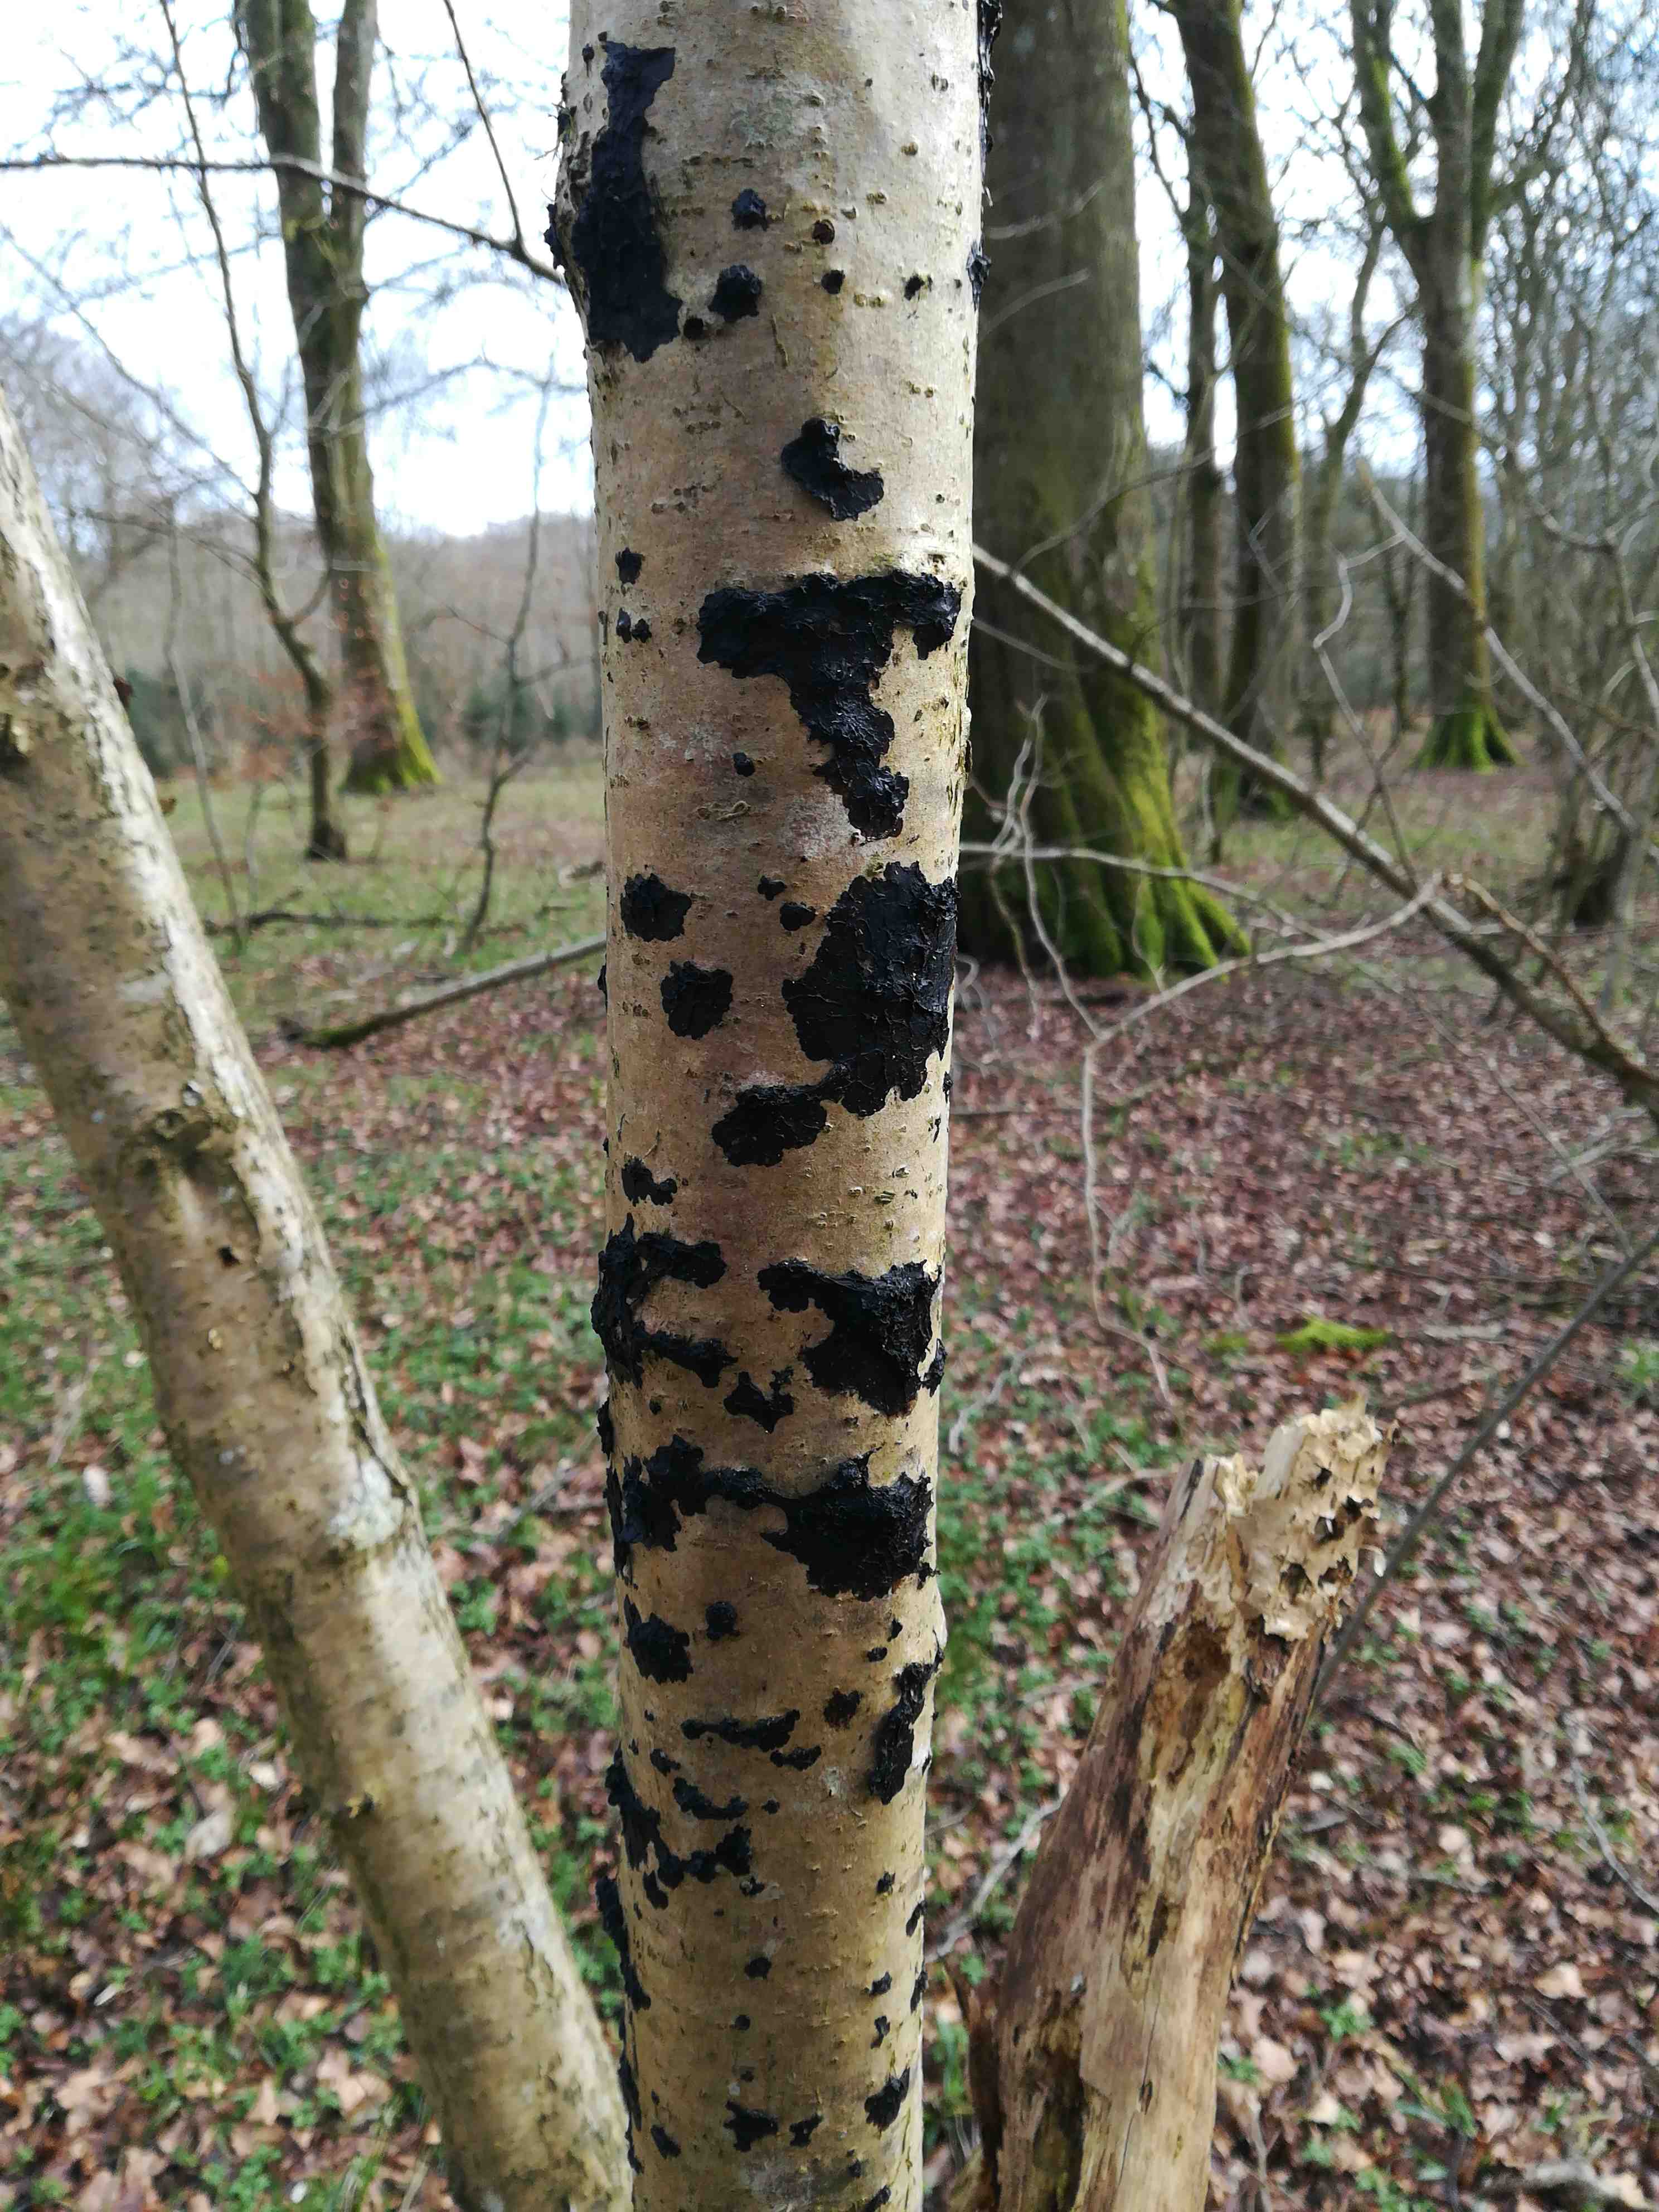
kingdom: Fungi
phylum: Basidiomycota
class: Agaricomycetes
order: Auriculariales
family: Auriculariaceae
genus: Exidia
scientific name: Exidia nigricans
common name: almindelig bævretop
